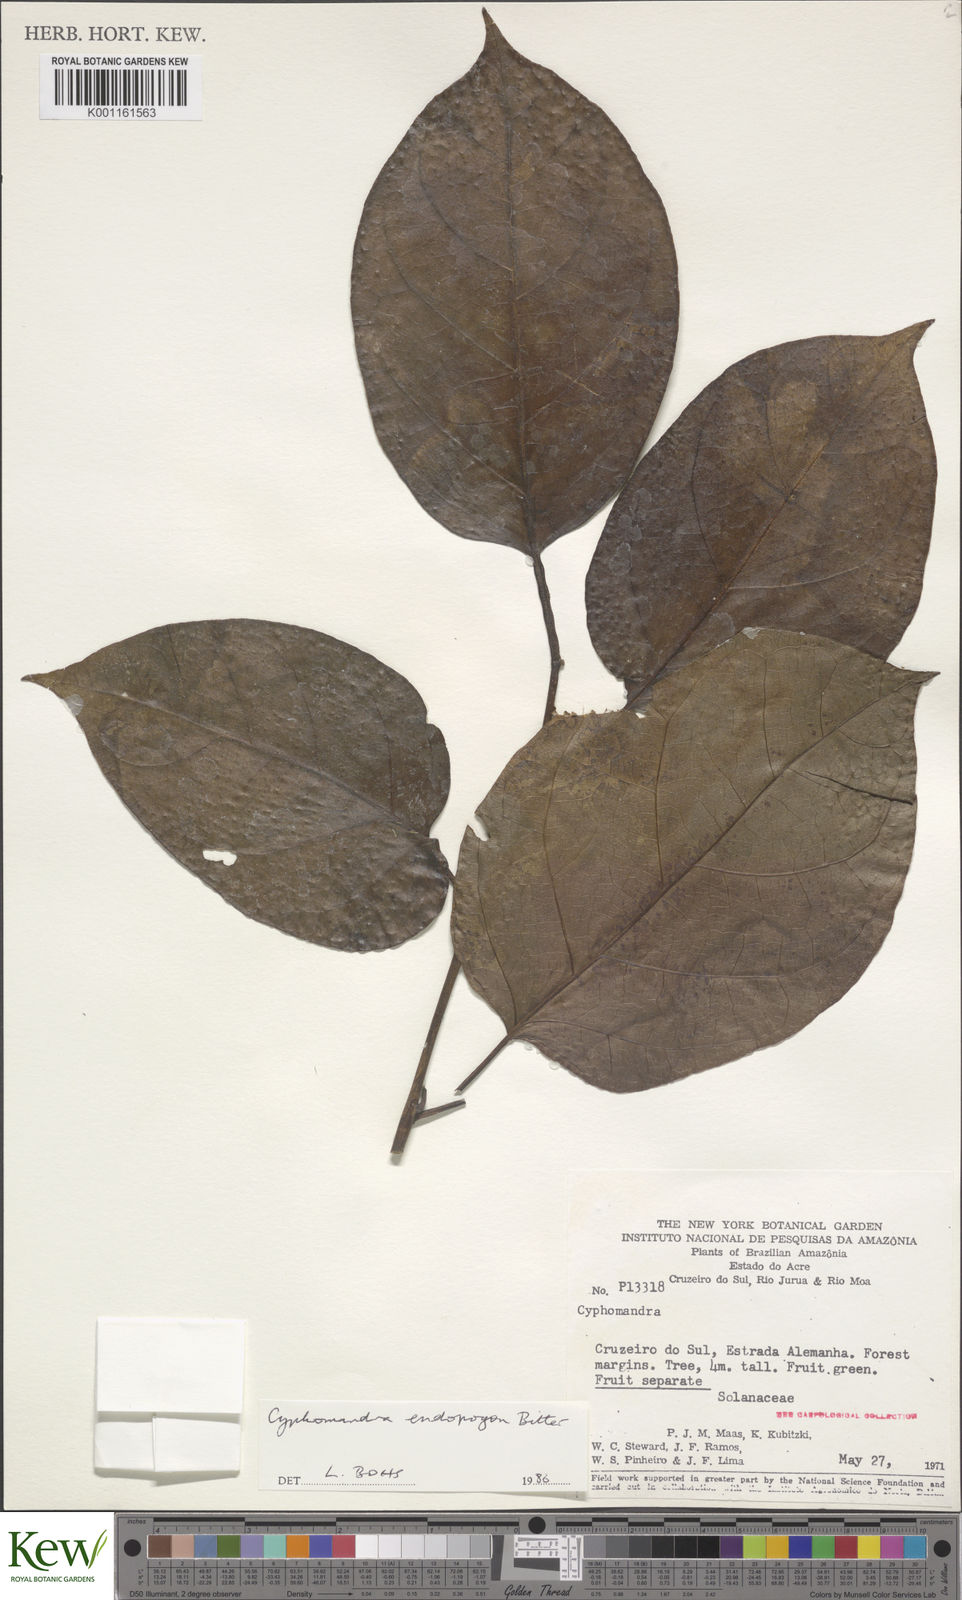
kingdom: Plantae
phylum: Tracheophyta
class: Magnoliopsida
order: Solanales
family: Solanaceae
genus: Solanum
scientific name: Solanum endopogon
